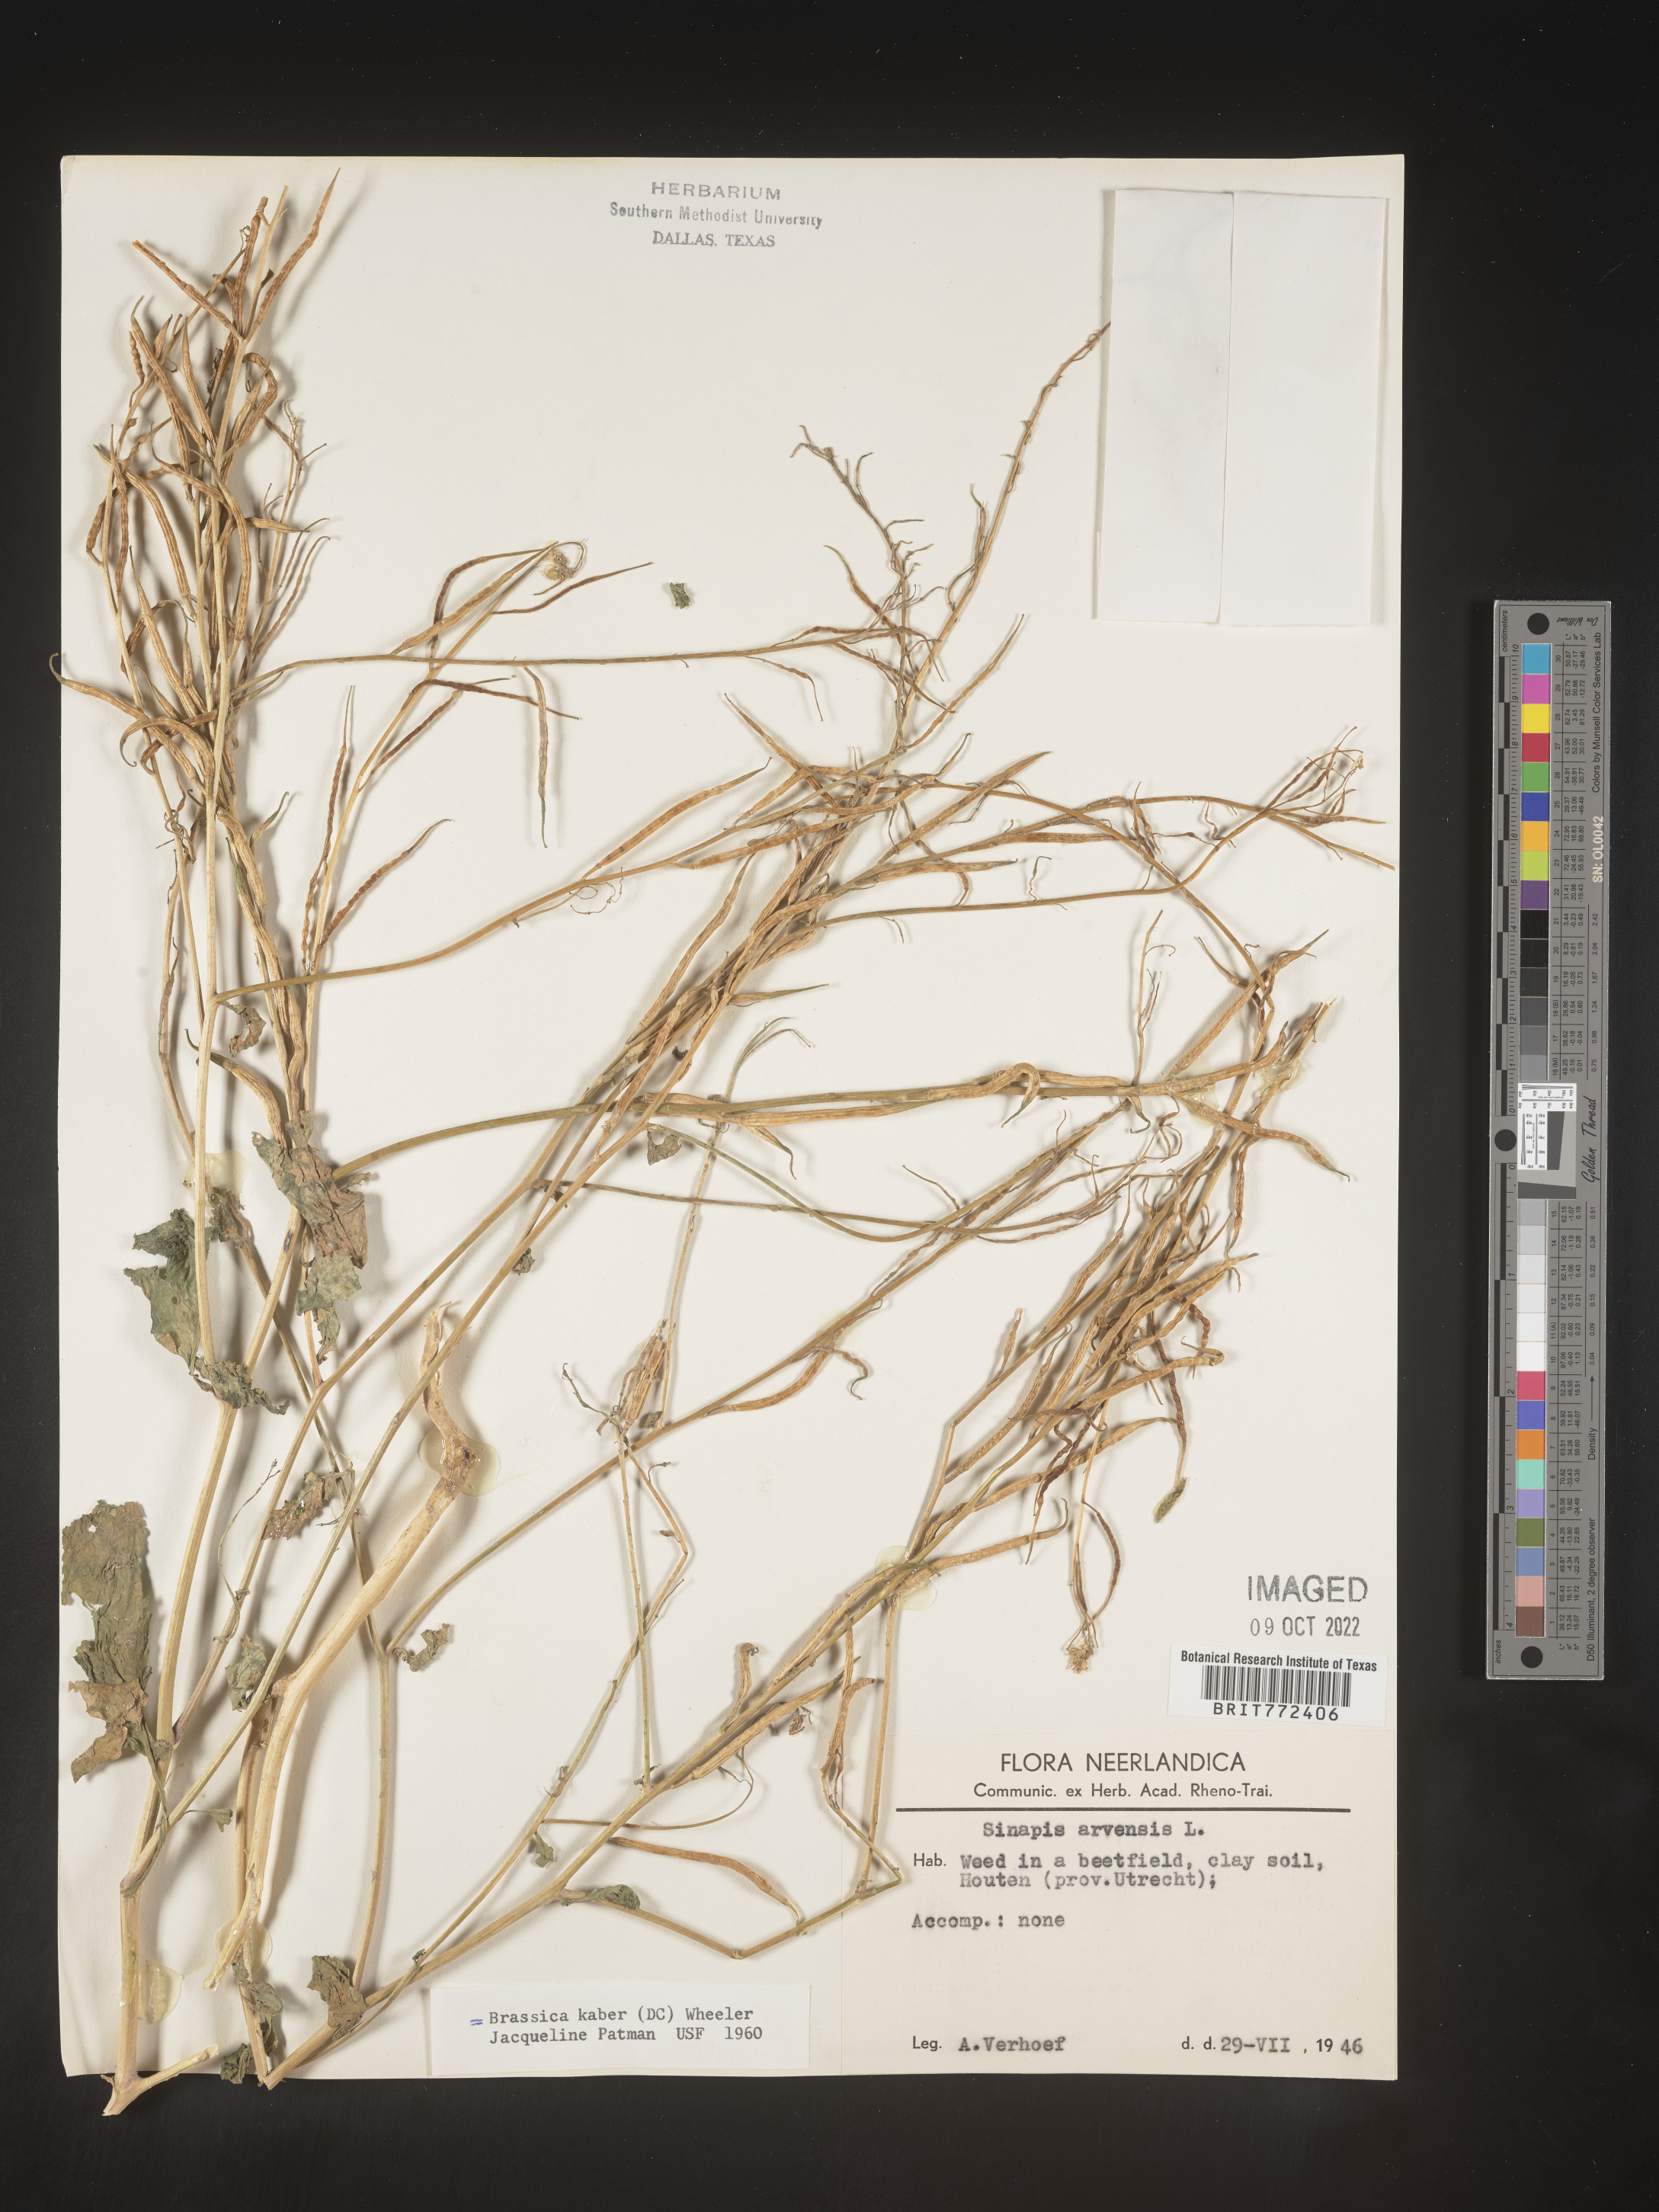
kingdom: Plantae
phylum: Tracheophyta
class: Magnoliopsida
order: Brassicales
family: Brassicaceae
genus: Brassica
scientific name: Brassica
